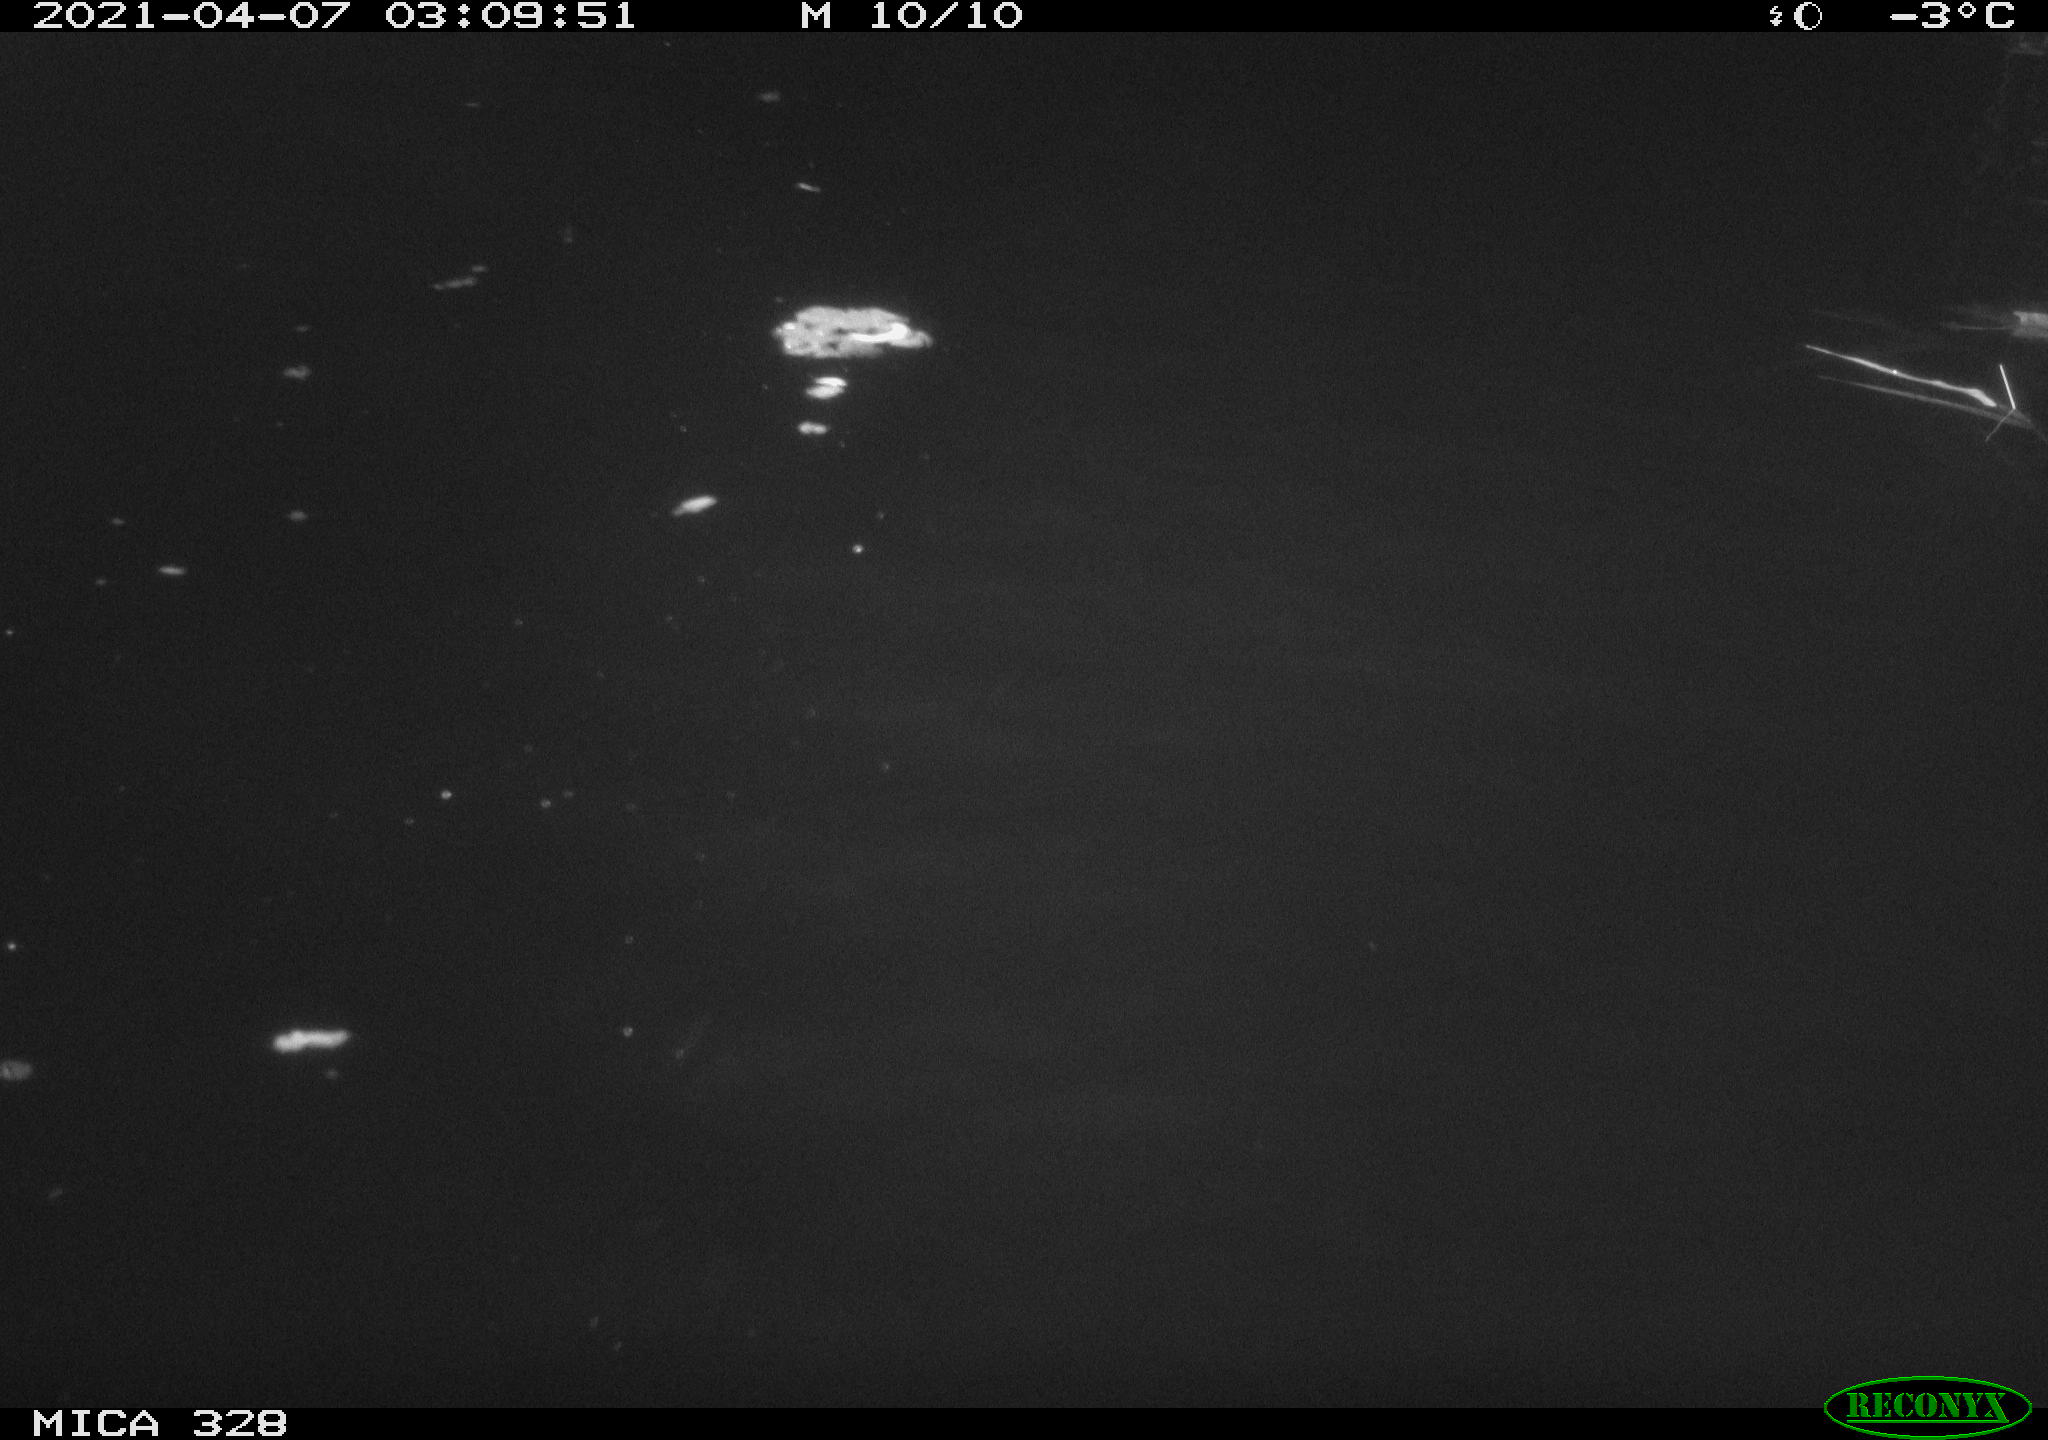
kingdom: Animalia
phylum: Chordata
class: Mammalia
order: Rodentia
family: Cricetidae
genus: Ondatra
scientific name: Ondatra zibethicus
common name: Muskrat
